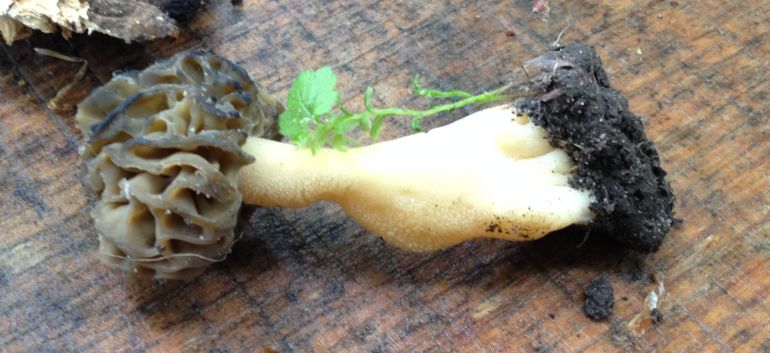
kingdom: Fungi
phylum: Ascomycota
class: Pezizomycetes
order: Pezizales
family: Morchellaceae
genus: Morchella
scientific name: Morchella semilibera
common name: hætte-morkel
